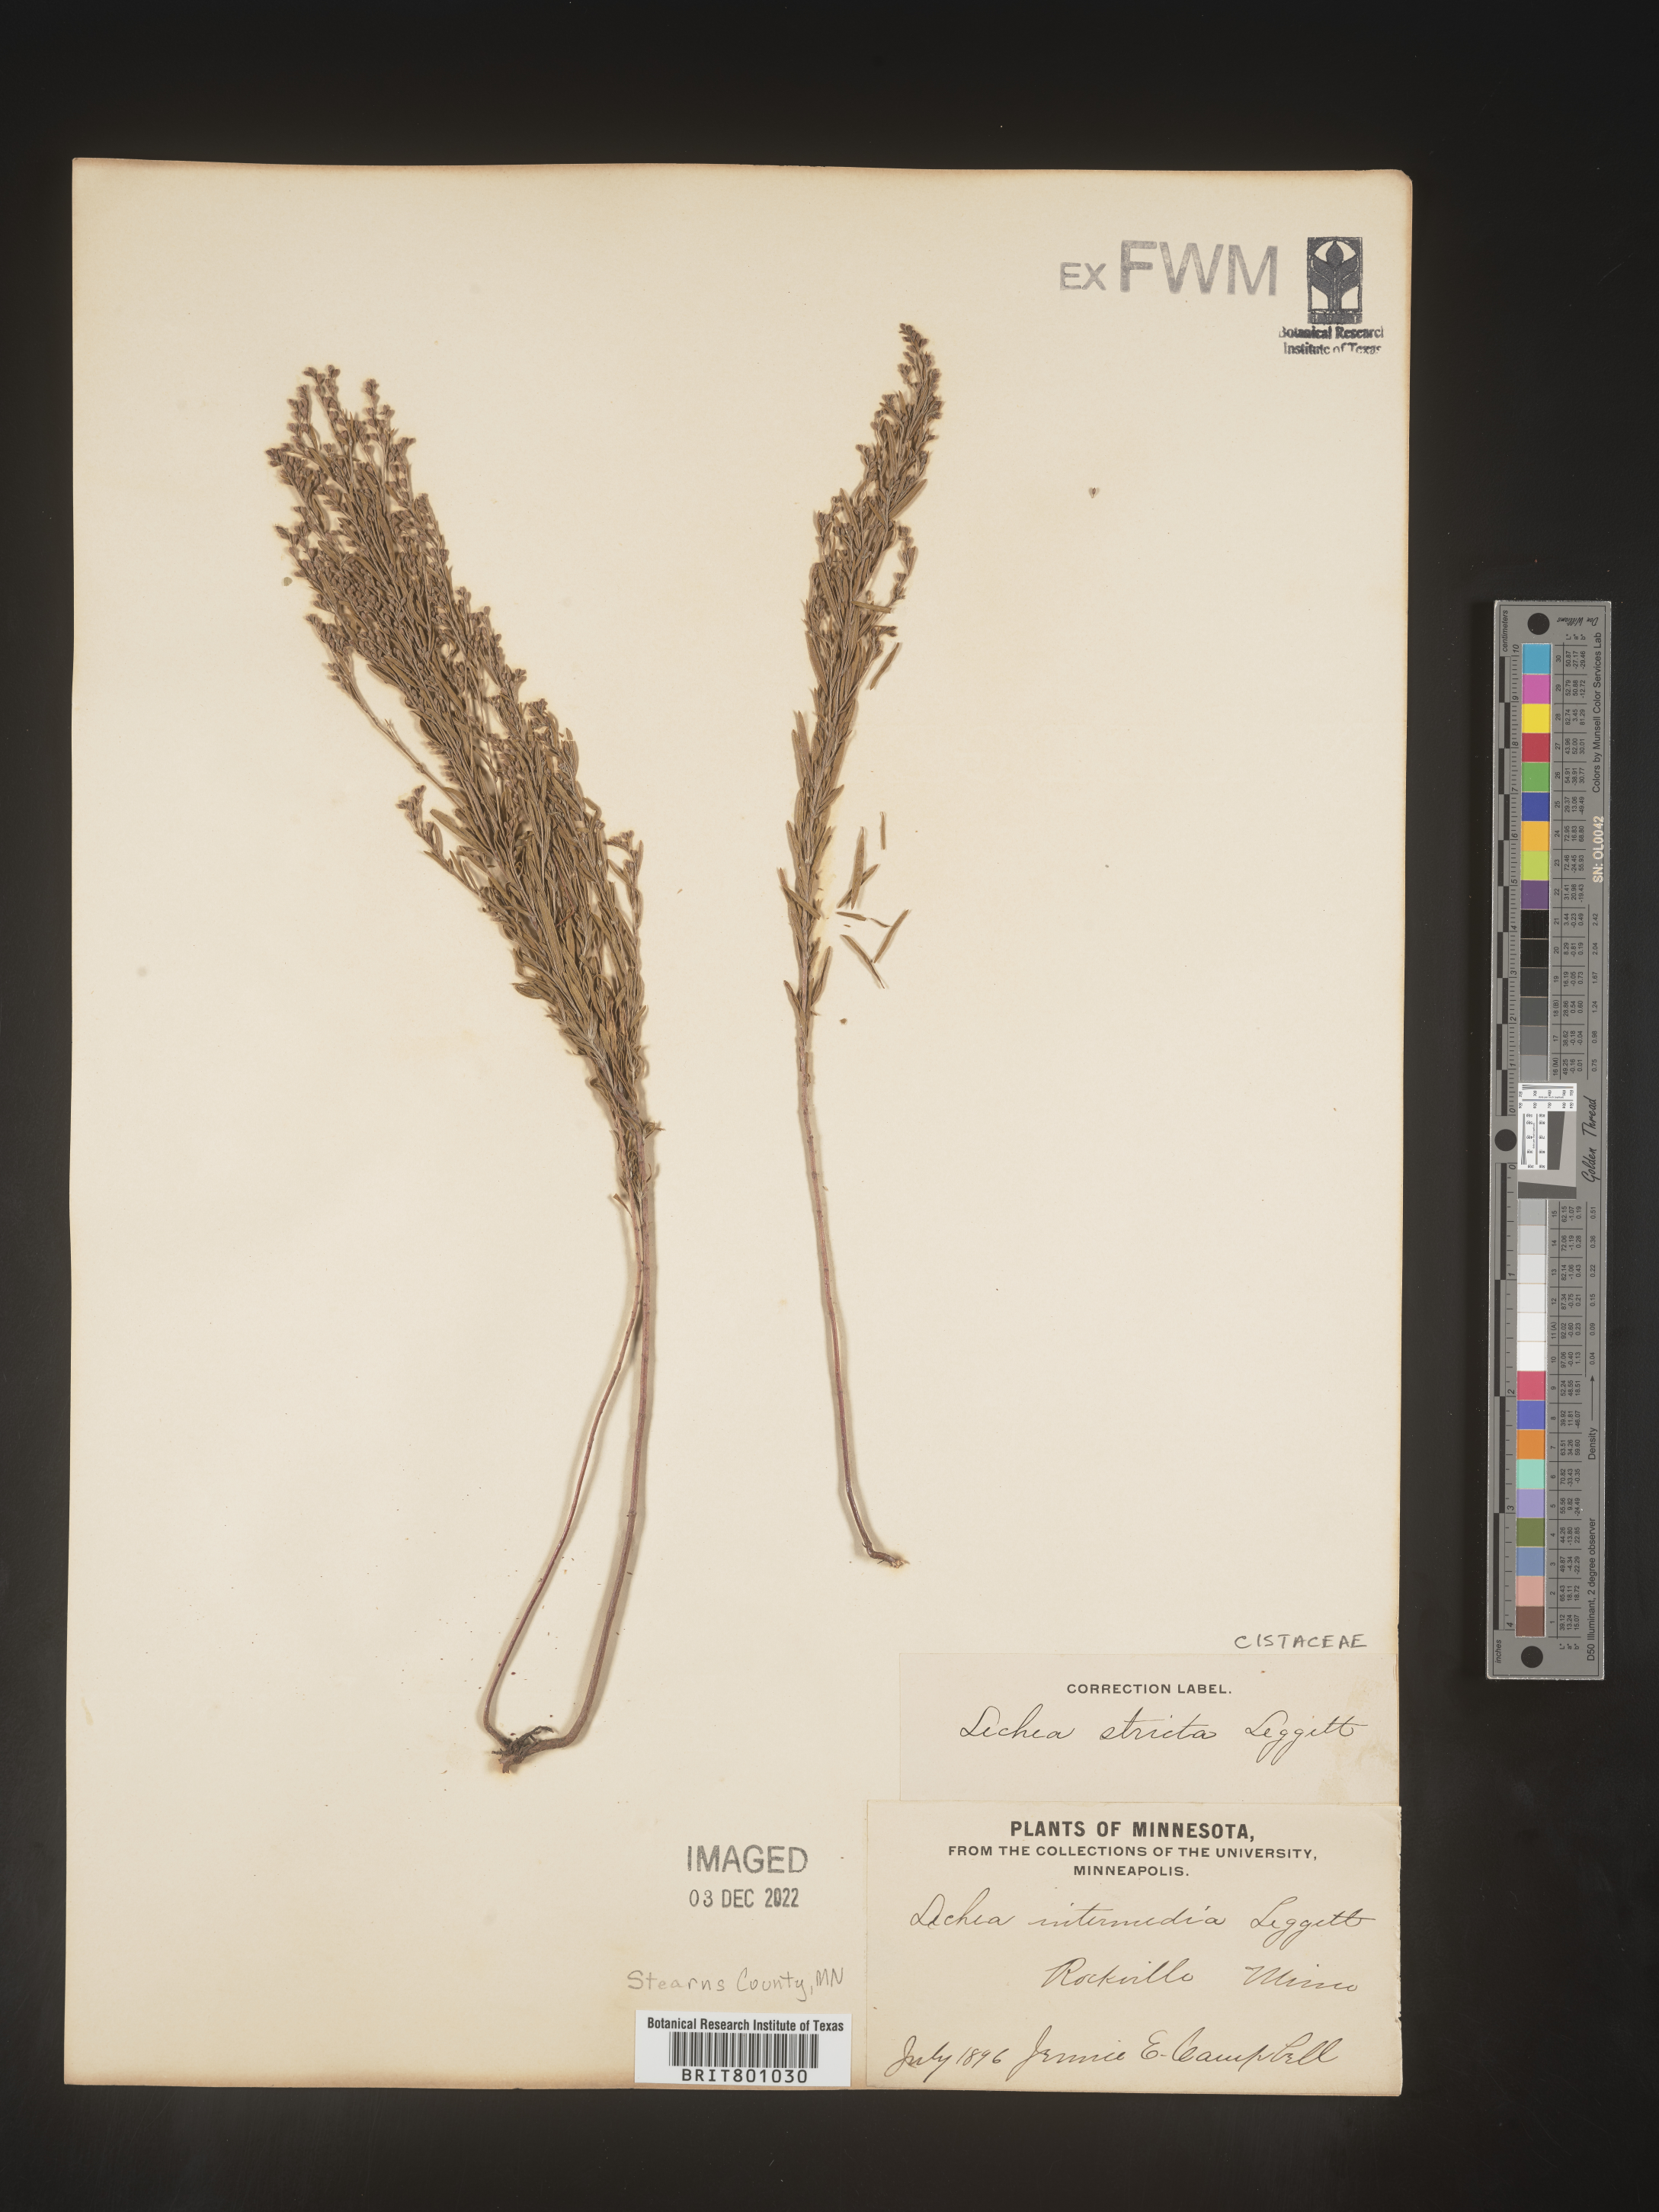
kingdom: Plantae
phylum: Tracheophyta
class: Magnoliopsida
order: Malvales
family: Cistaceae
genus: Lechea
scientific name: Lechea
